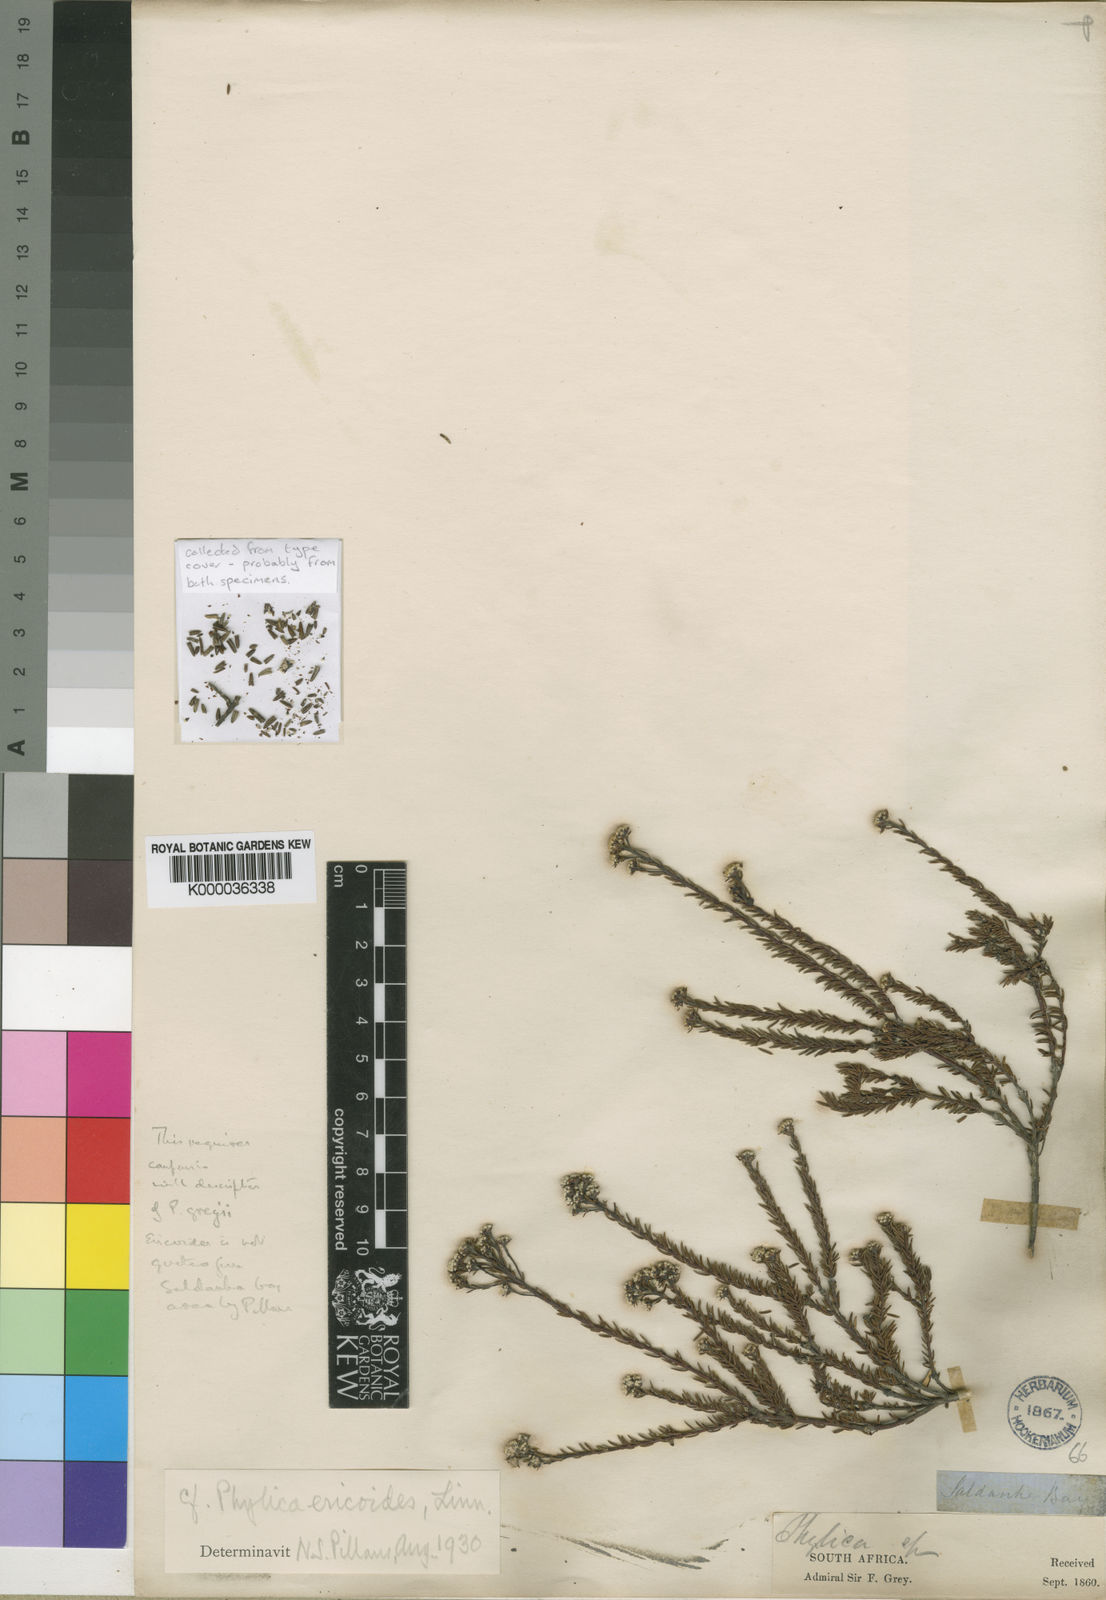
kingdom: Plantae
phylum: Tracheophyta
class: Magnoliopsida
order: Rosales
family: Rhamnaceae
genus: Phylica
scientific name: Phylica greyii
